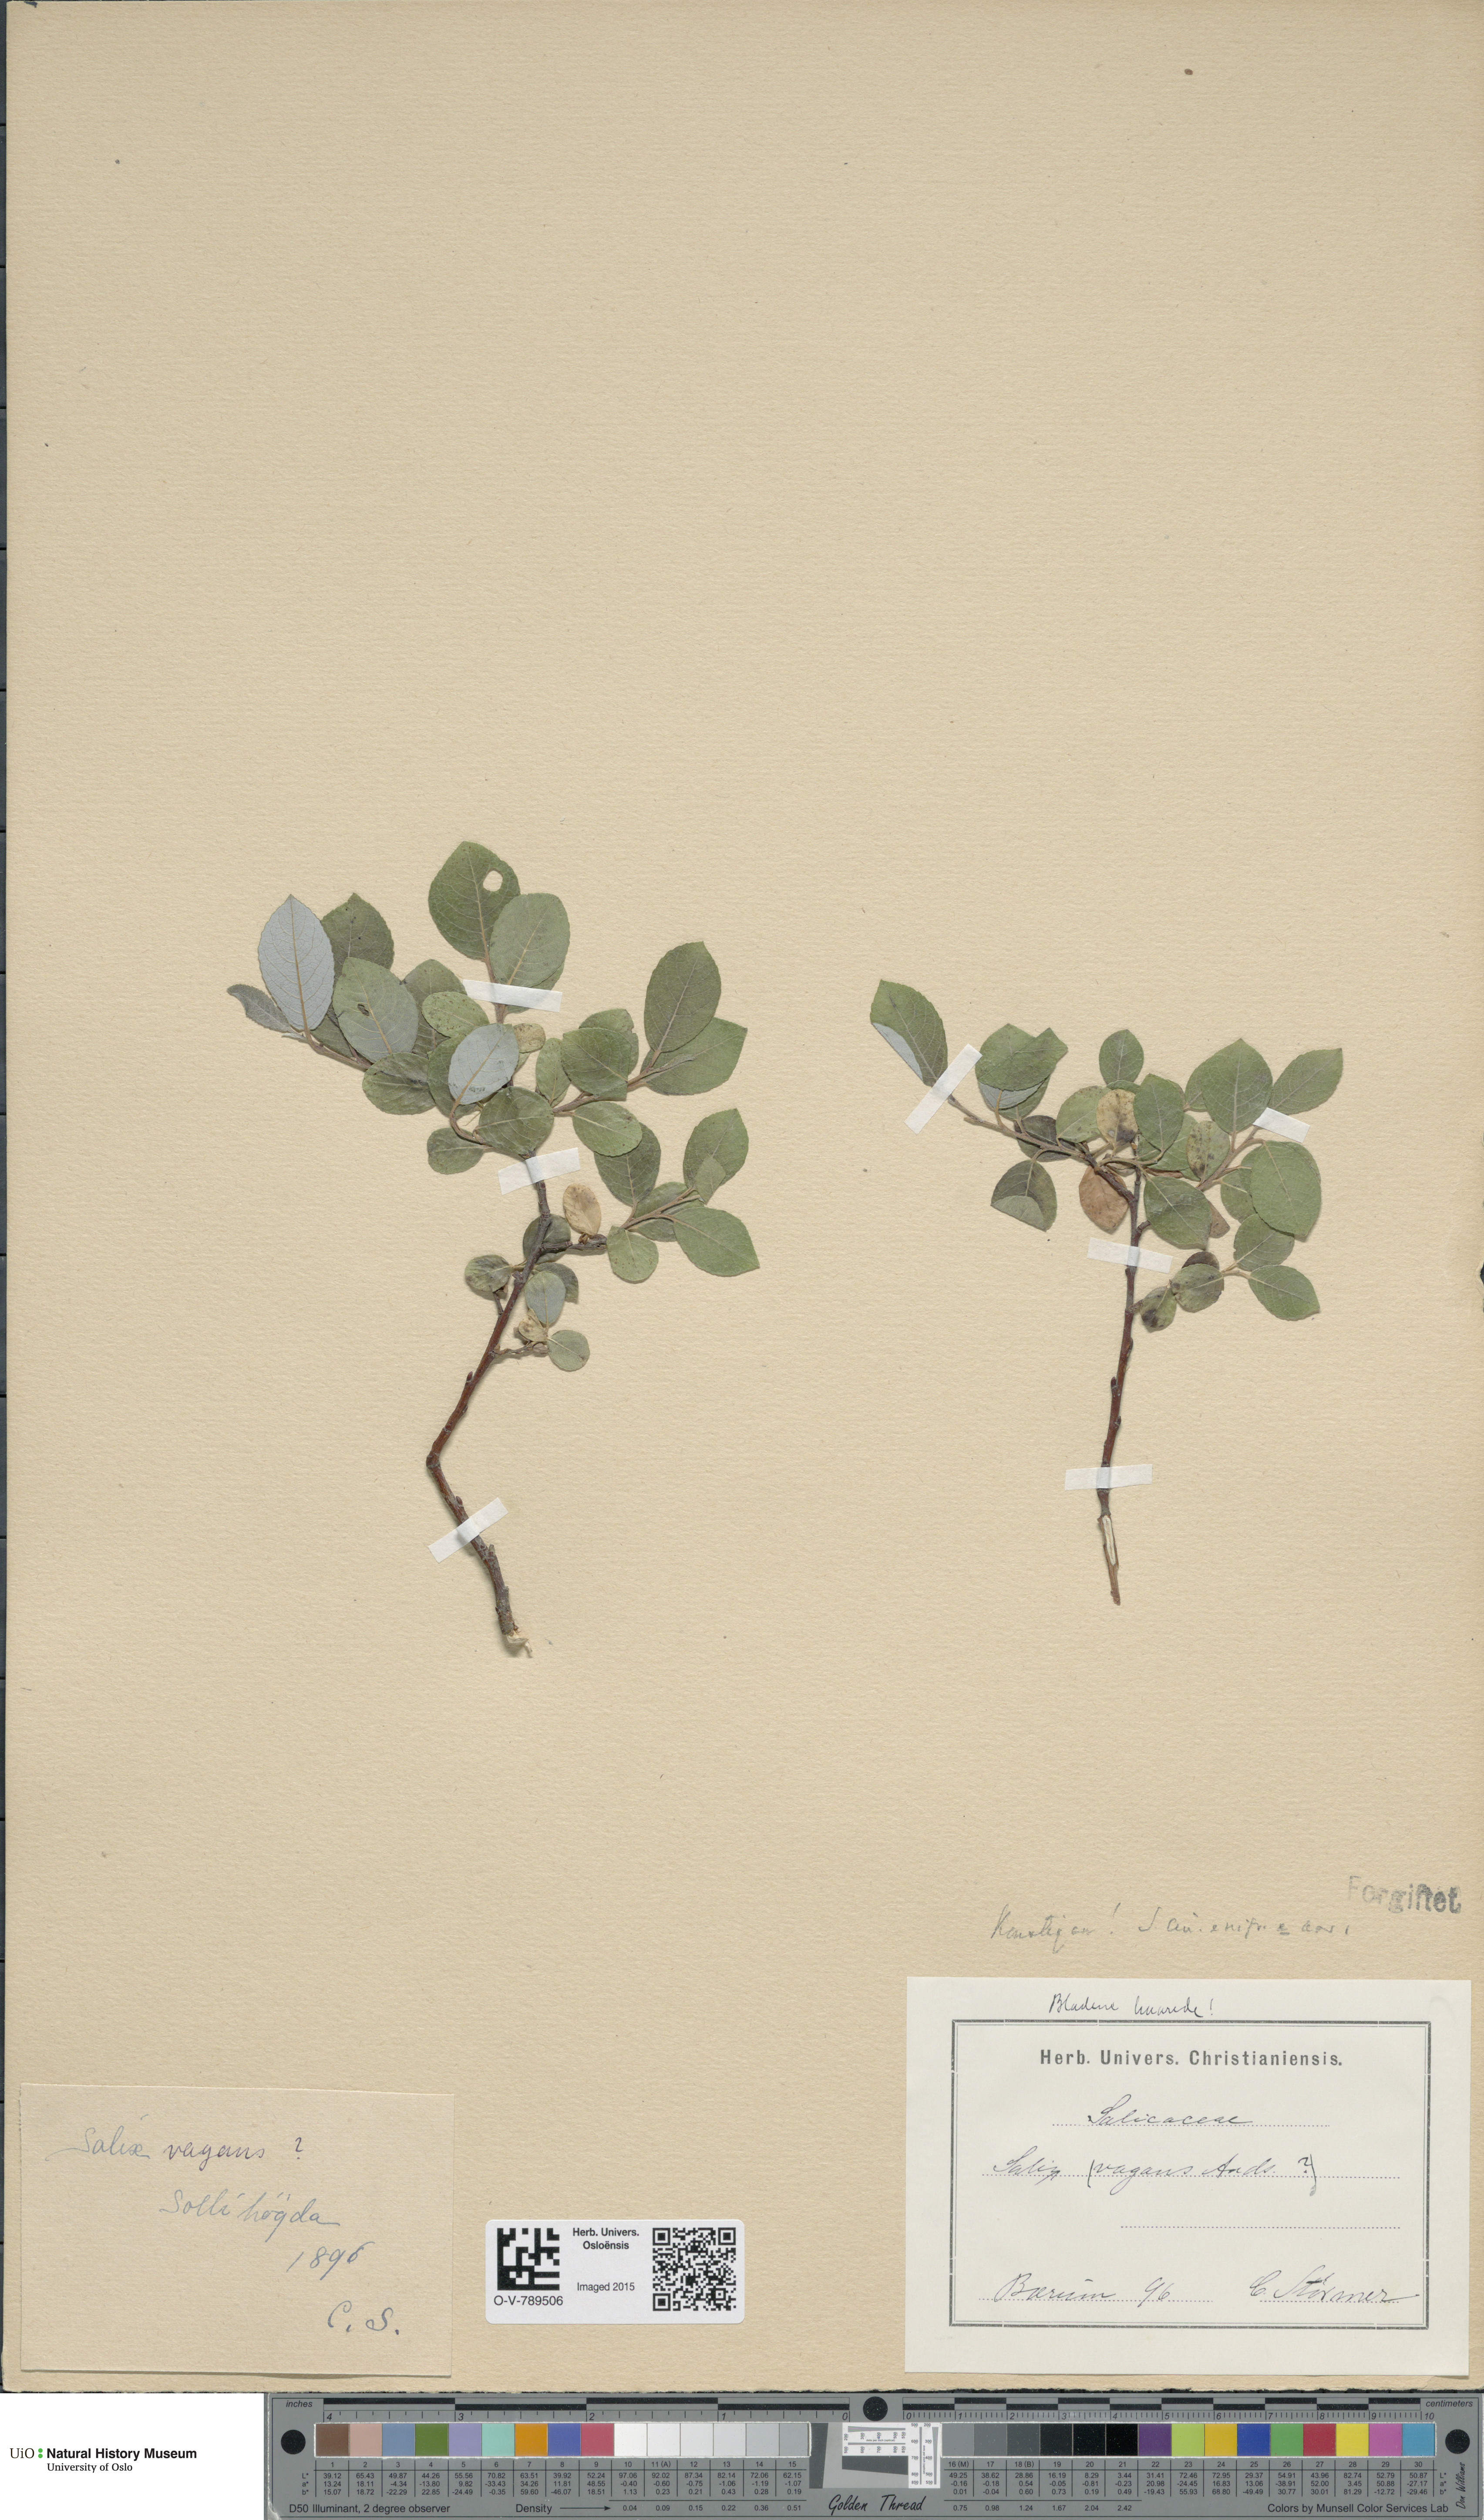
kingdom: Plantae
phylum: Tracheophyta
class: Magnoliopsida
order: Malpighiales
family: Salicaceae
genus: Salix
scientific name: Salix
